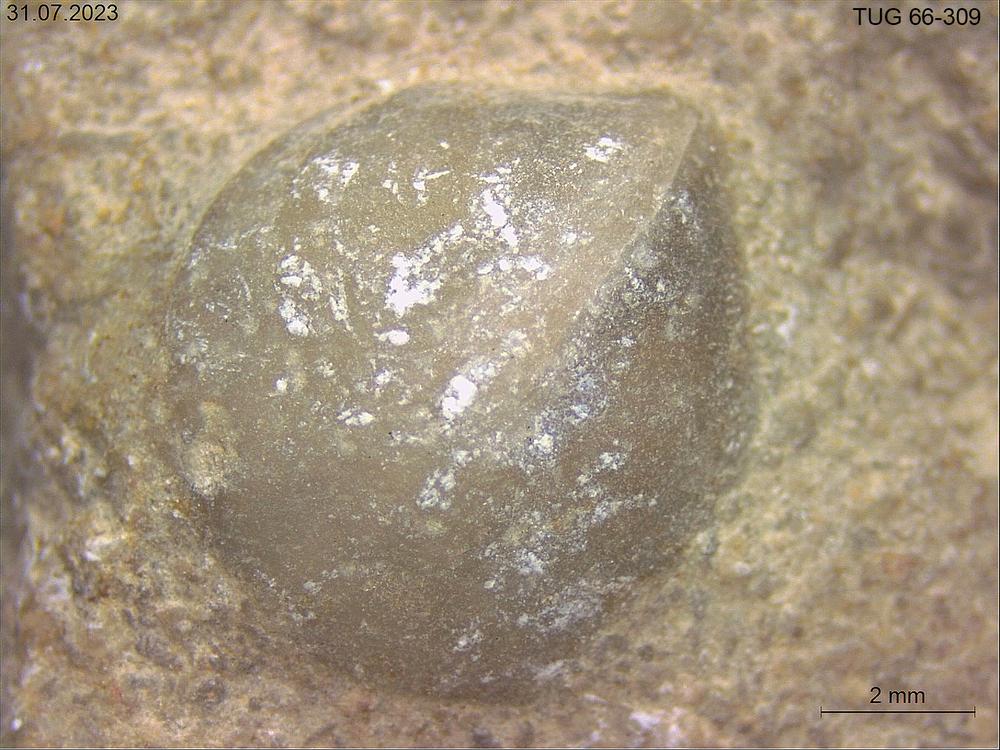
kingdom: Animalia
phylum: Brachiopoda
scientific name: Brachiopoda
